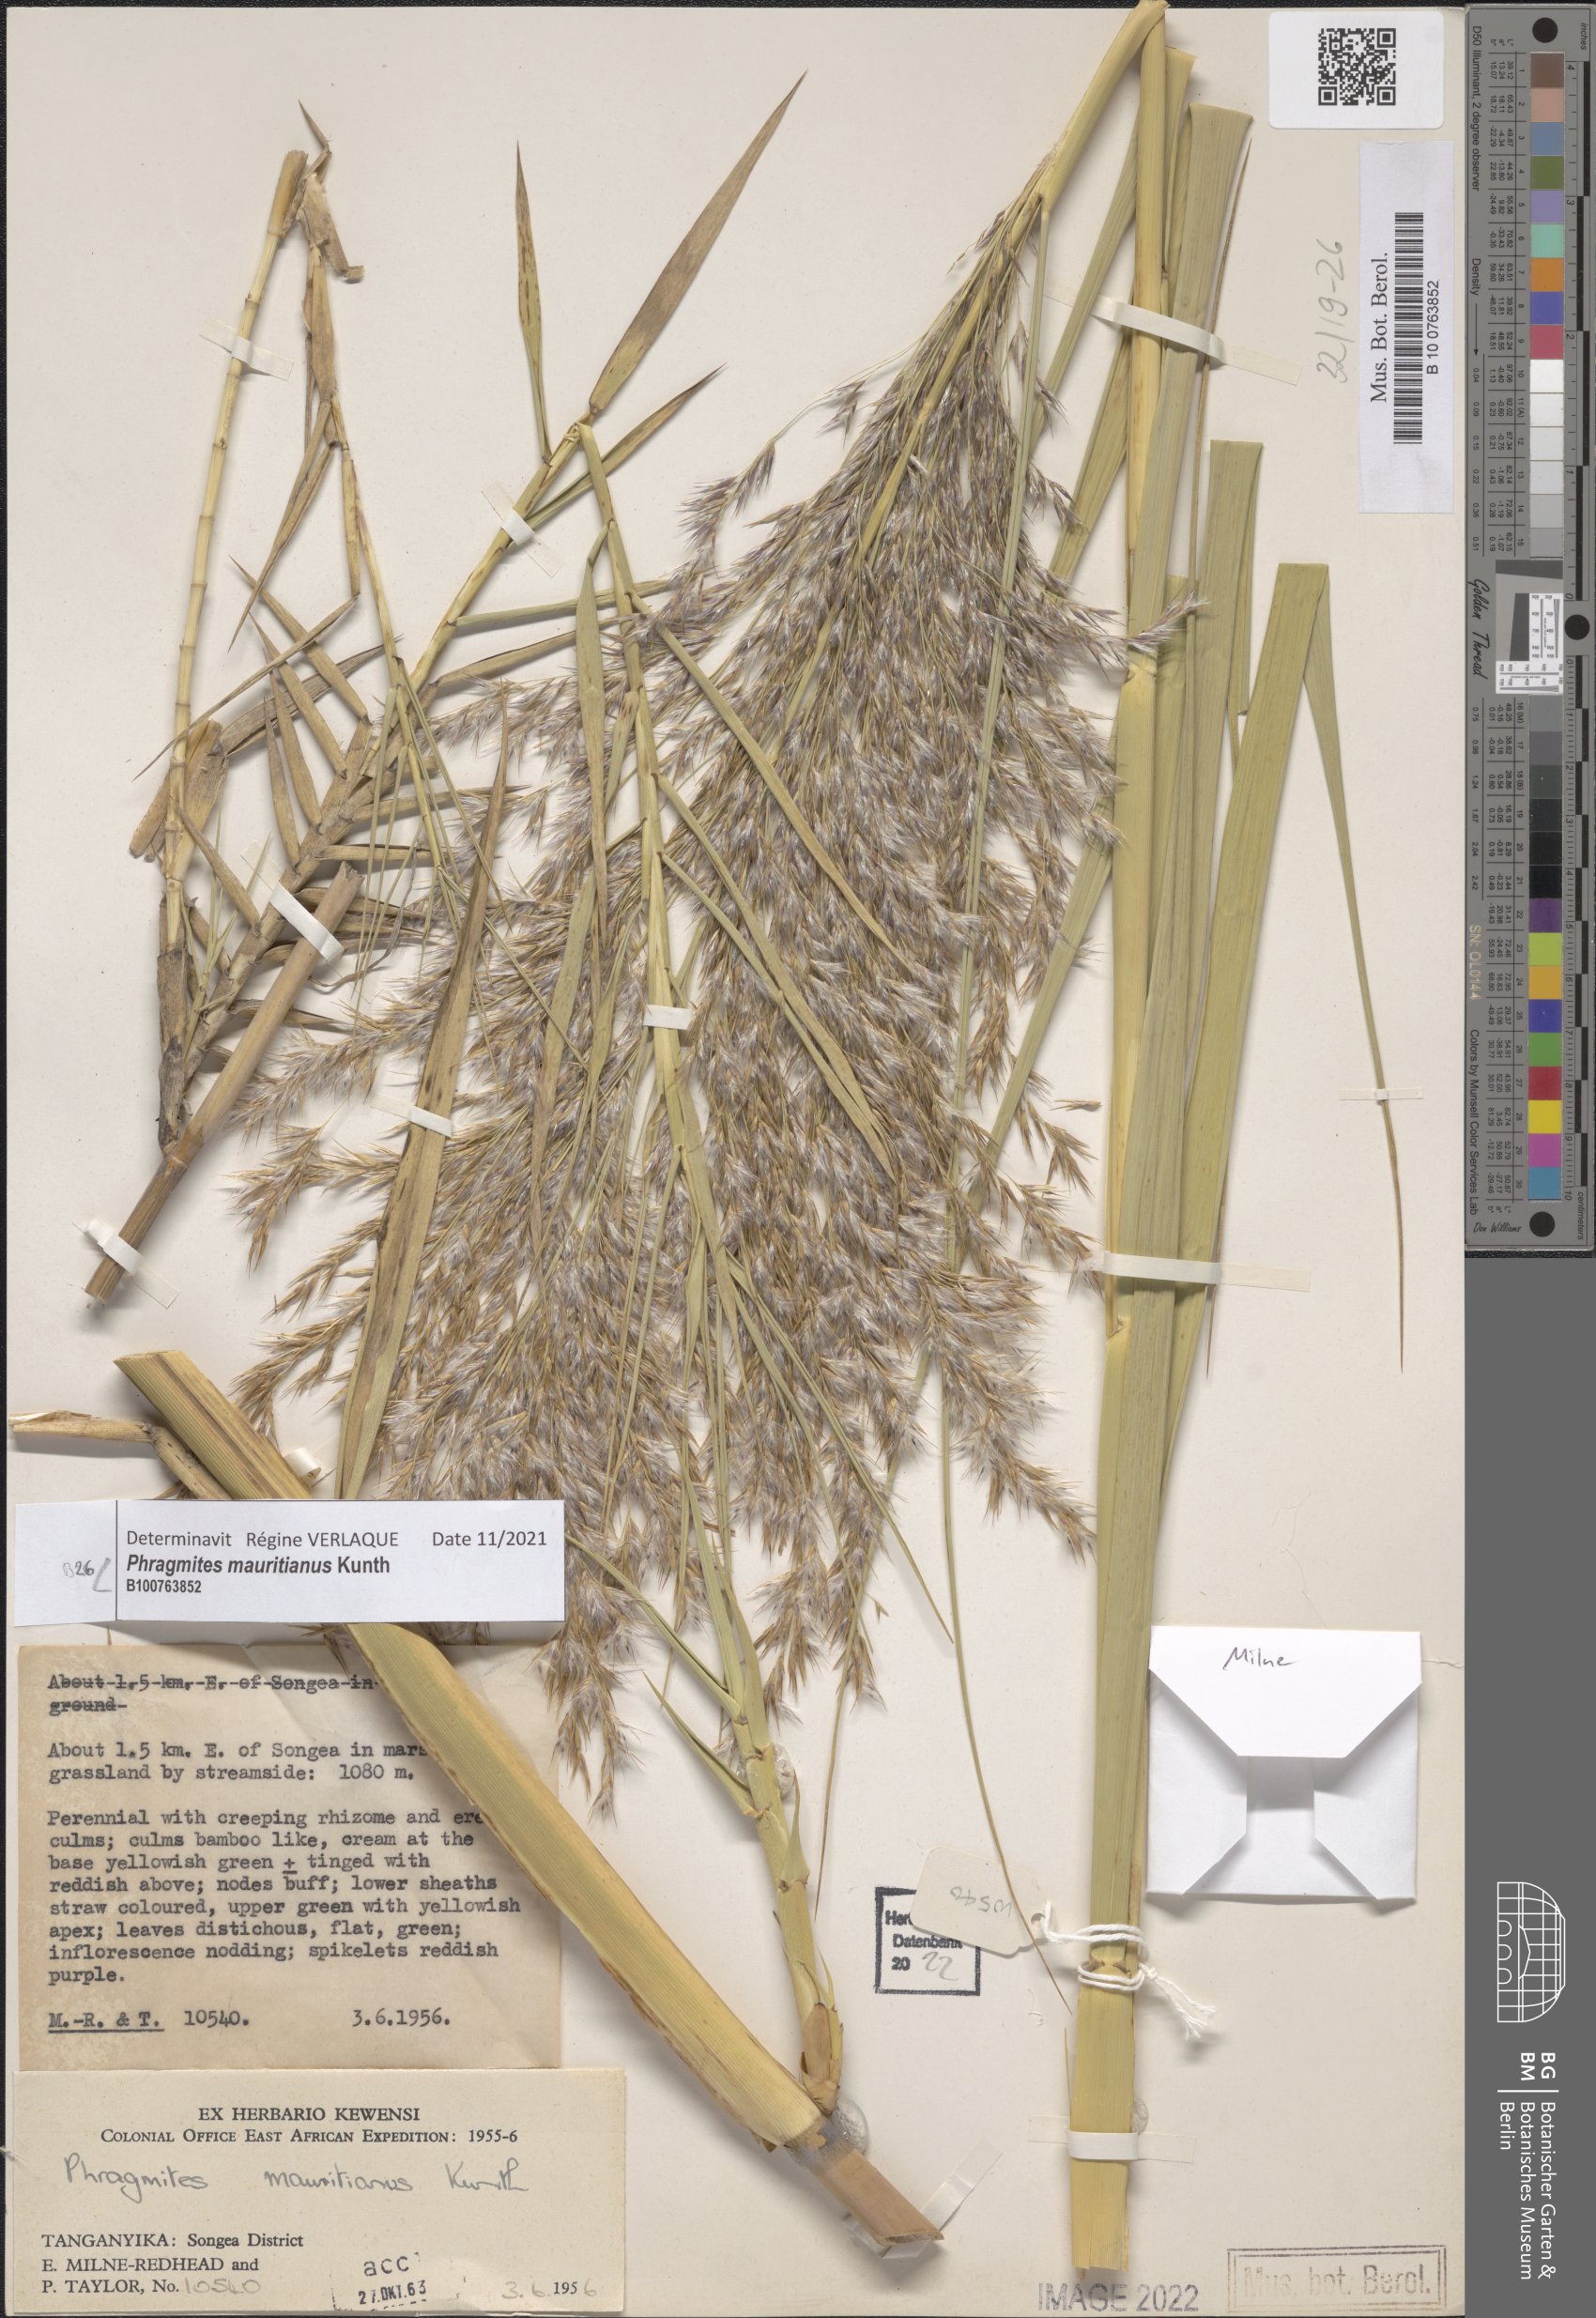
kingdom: Plantae
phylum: Tracheophyta
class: Liliopsida
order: Poales
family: Poaceae
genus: Phragmites
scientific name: Phragmites mauritianus
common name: Reed grass
